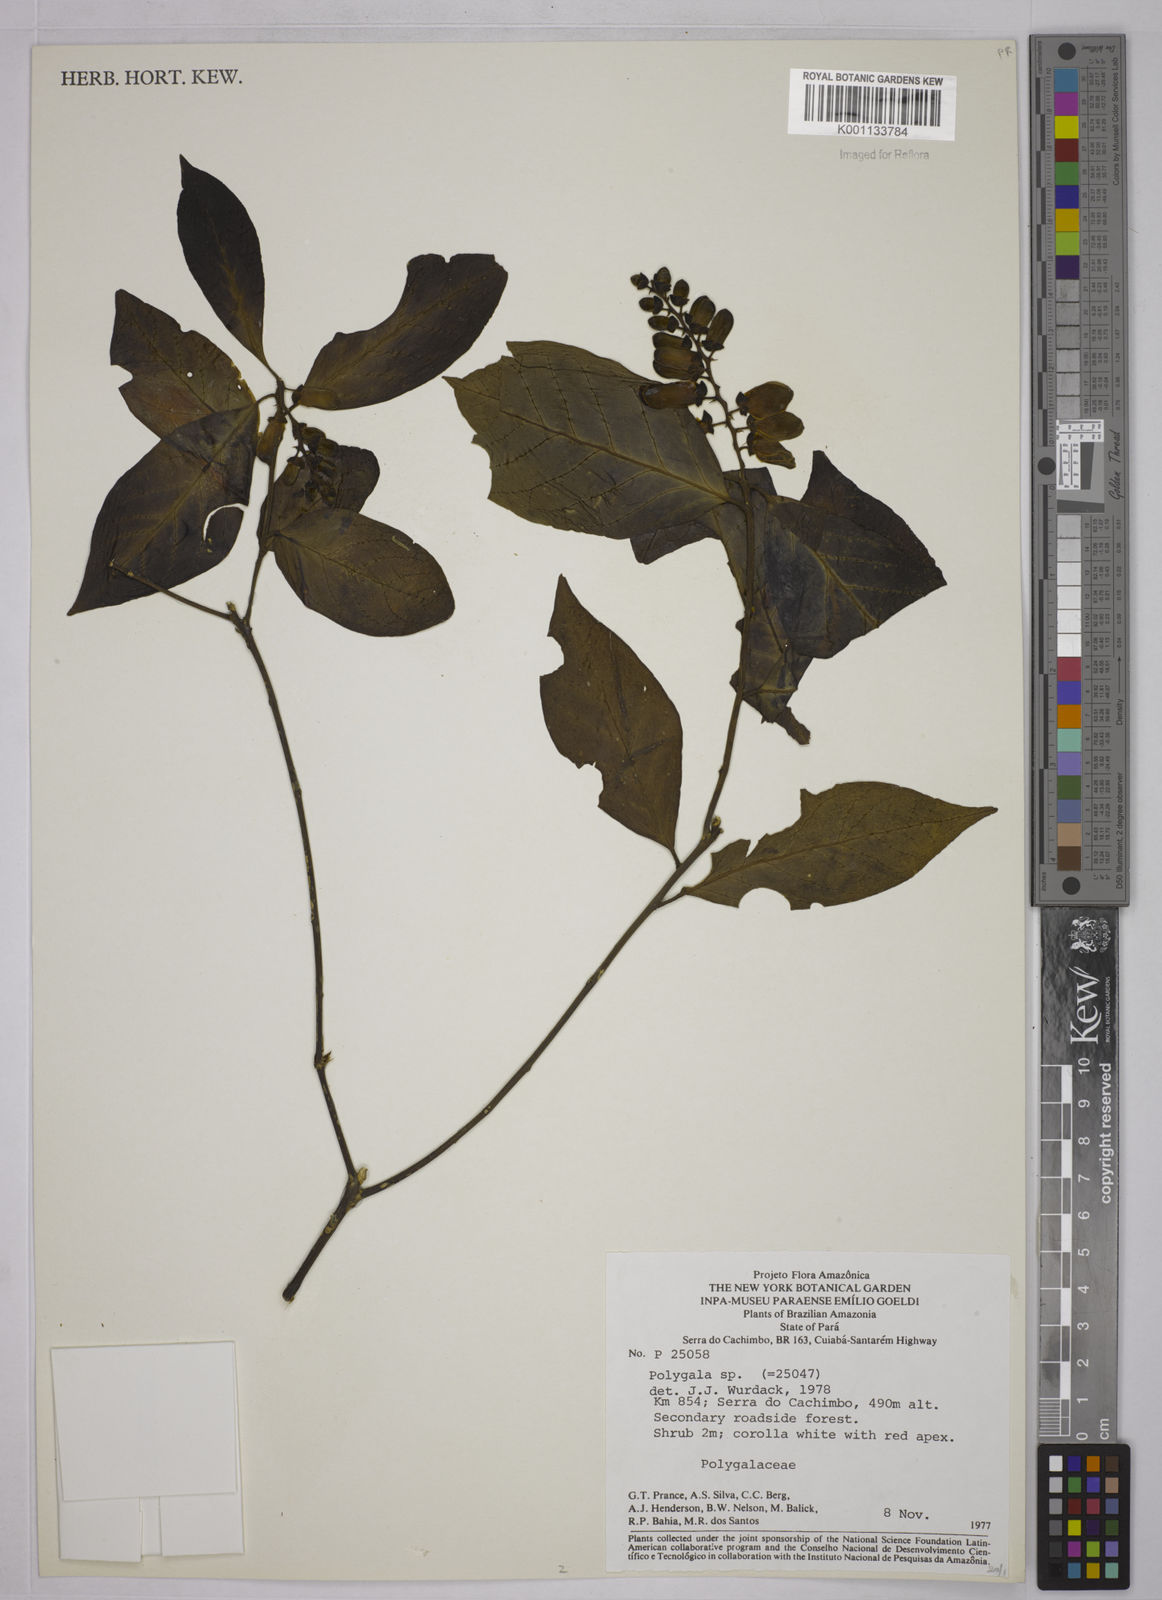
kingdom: Plantae
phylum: Tracheophyta
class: Magnoliopsida
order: Fabales
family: Polygalaceae
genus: Polygala
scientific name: Polygala
